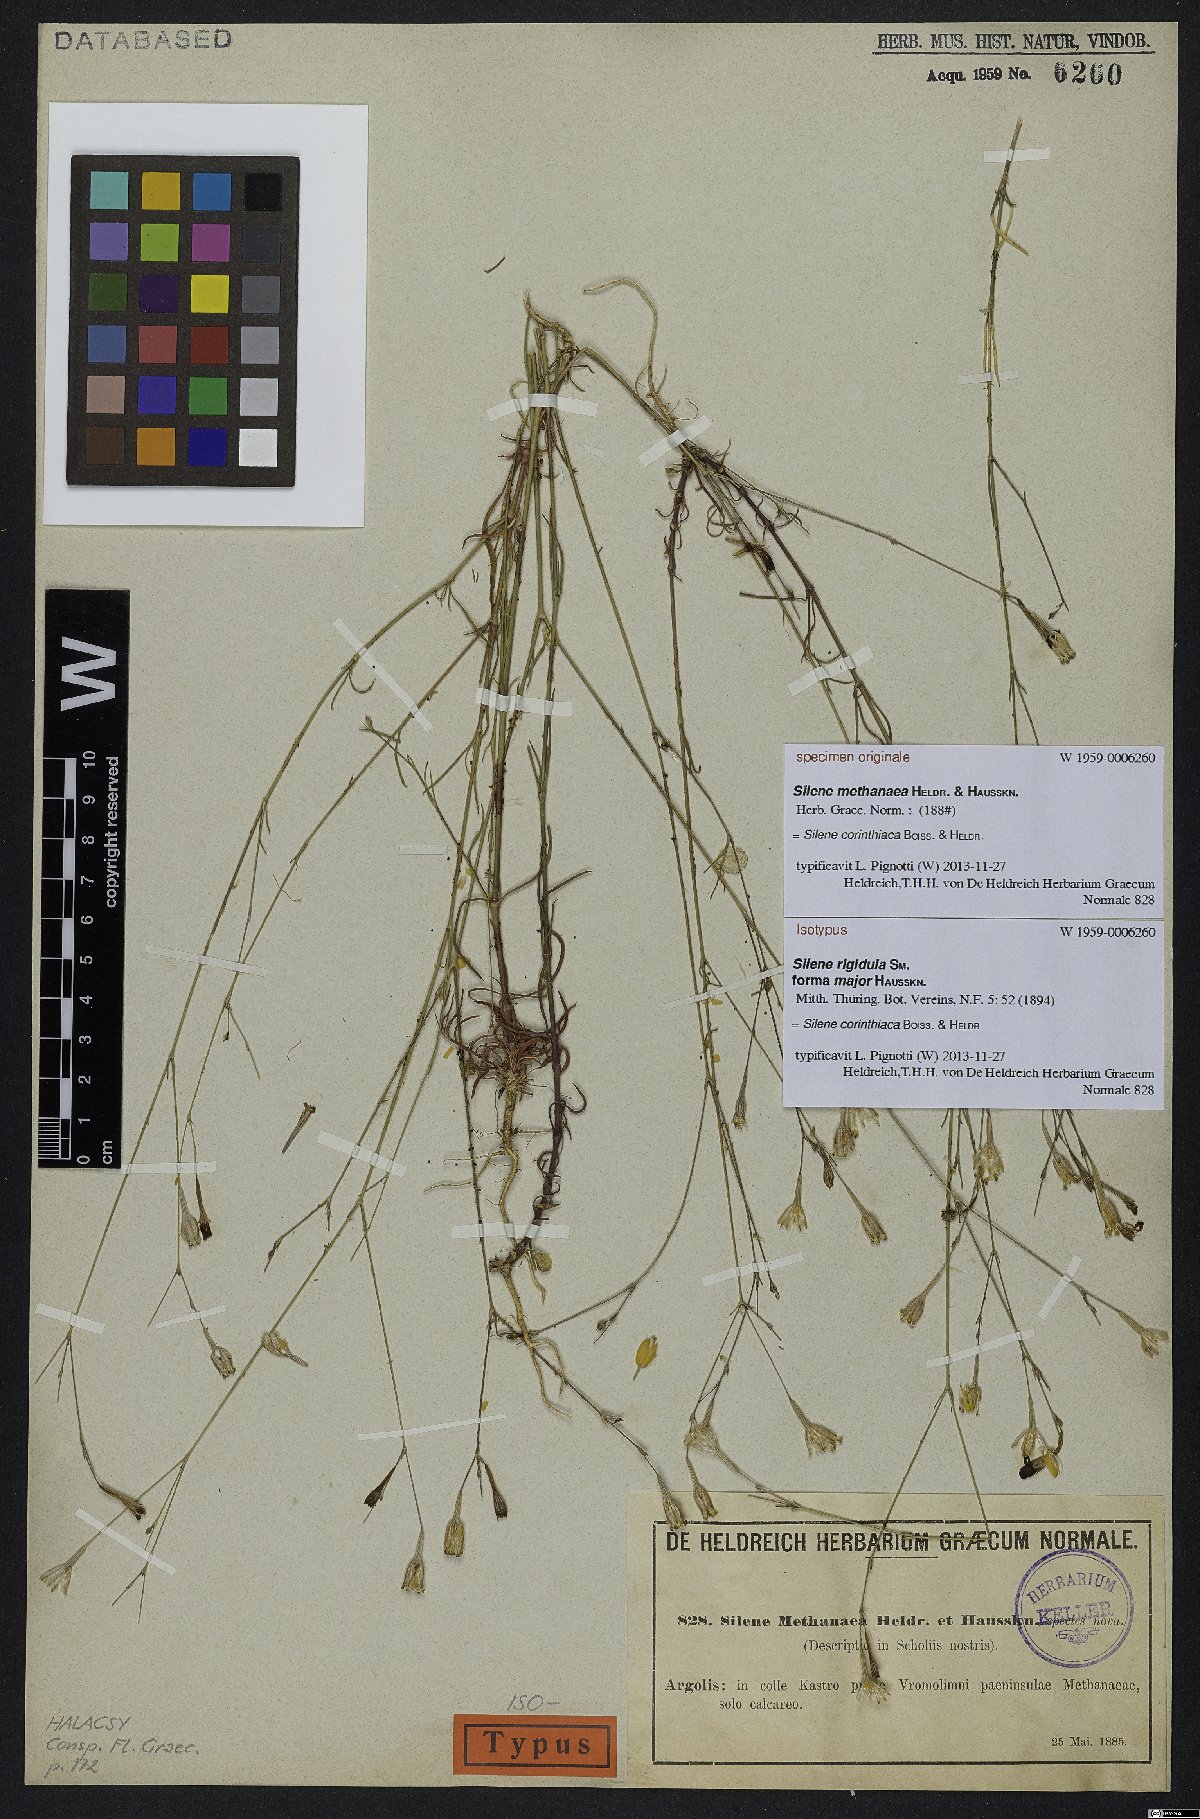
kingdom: Plantae
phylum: Tracheophyta
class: Magnoliopsida
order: Caryophyllales
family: Caryophyllaceae
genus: Silene
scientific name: Silene corinthiaca
